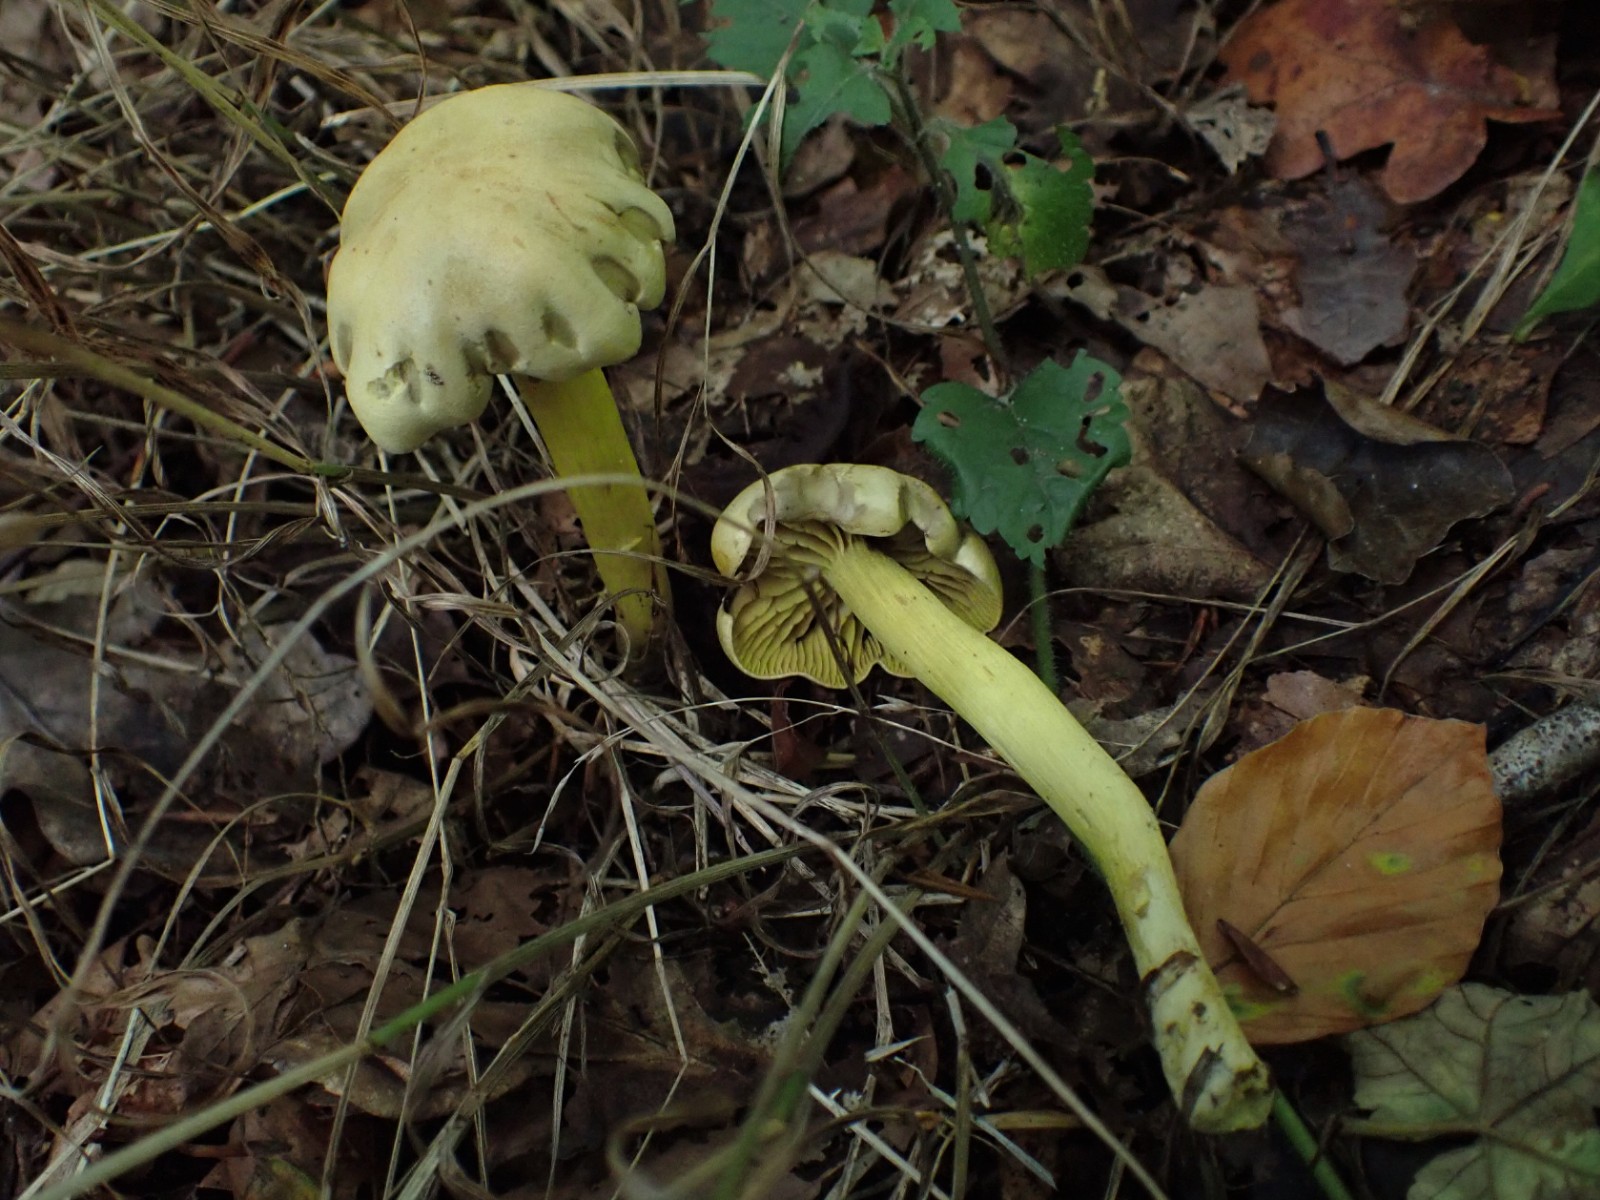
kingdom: Fungi
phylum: Basidiomycota
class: Agaricomycetes
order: Agaricales
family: Tricholomataceae
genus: Tricholoma
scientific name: Tricholoma sulphureum
